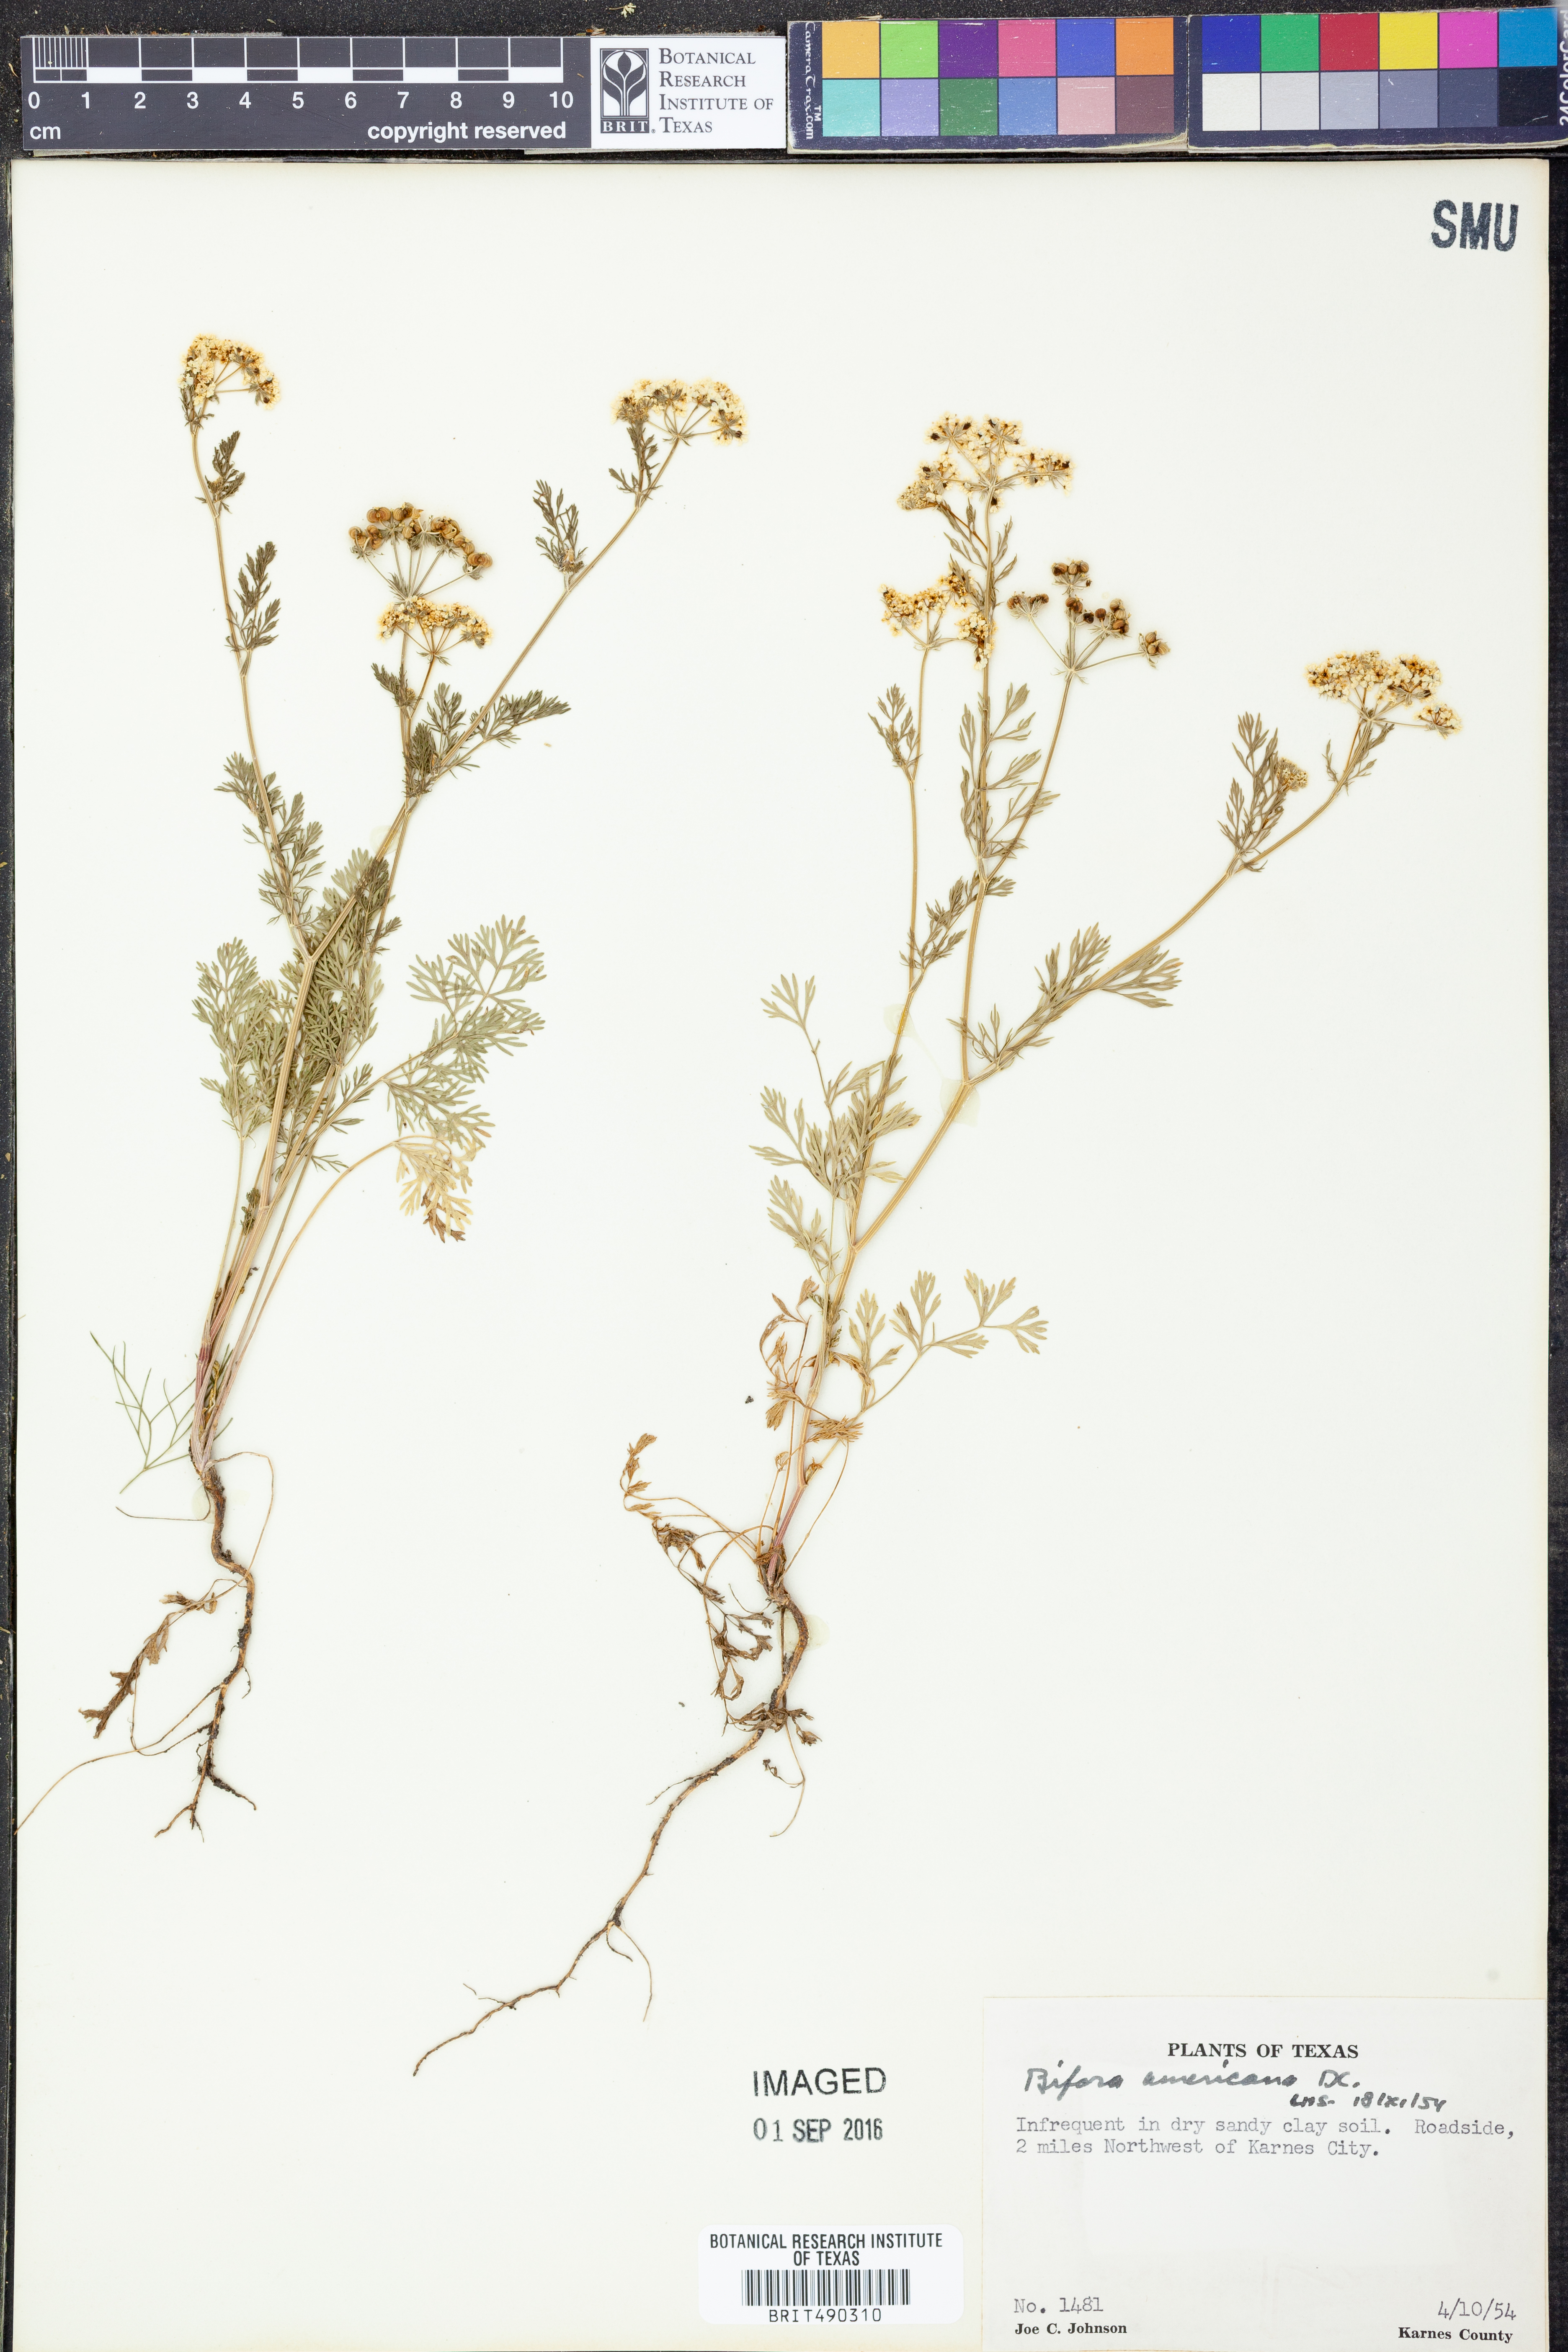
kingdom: Plantae
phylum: Tracheophyta
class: Magnoliopsida
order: Apiales
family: Apiaceae
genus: Atrema
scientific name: Atrema americanum
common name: Prairie-bishop
